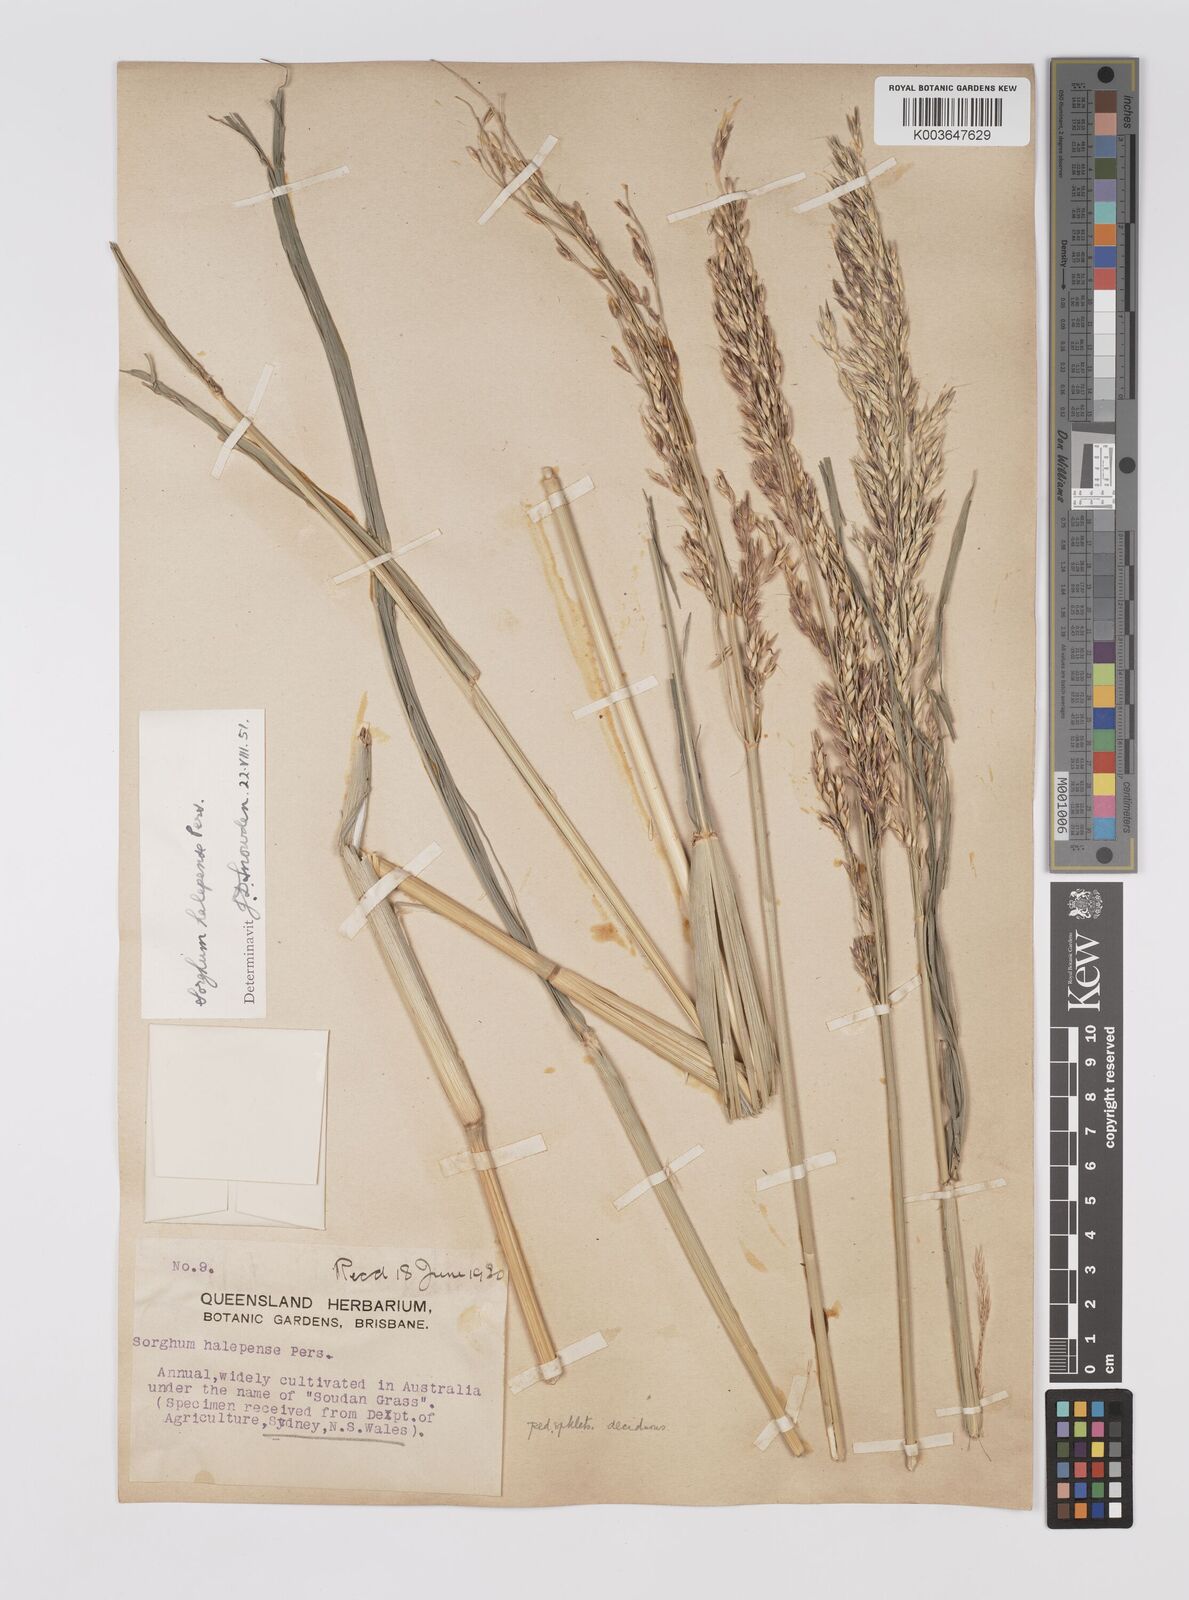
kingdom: Plantae
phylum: Tracheophyta
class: Liliopsida
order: Poales
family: Poaceae
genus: Sorghum
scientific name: Sorghum halepense
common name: Johnson-grass
